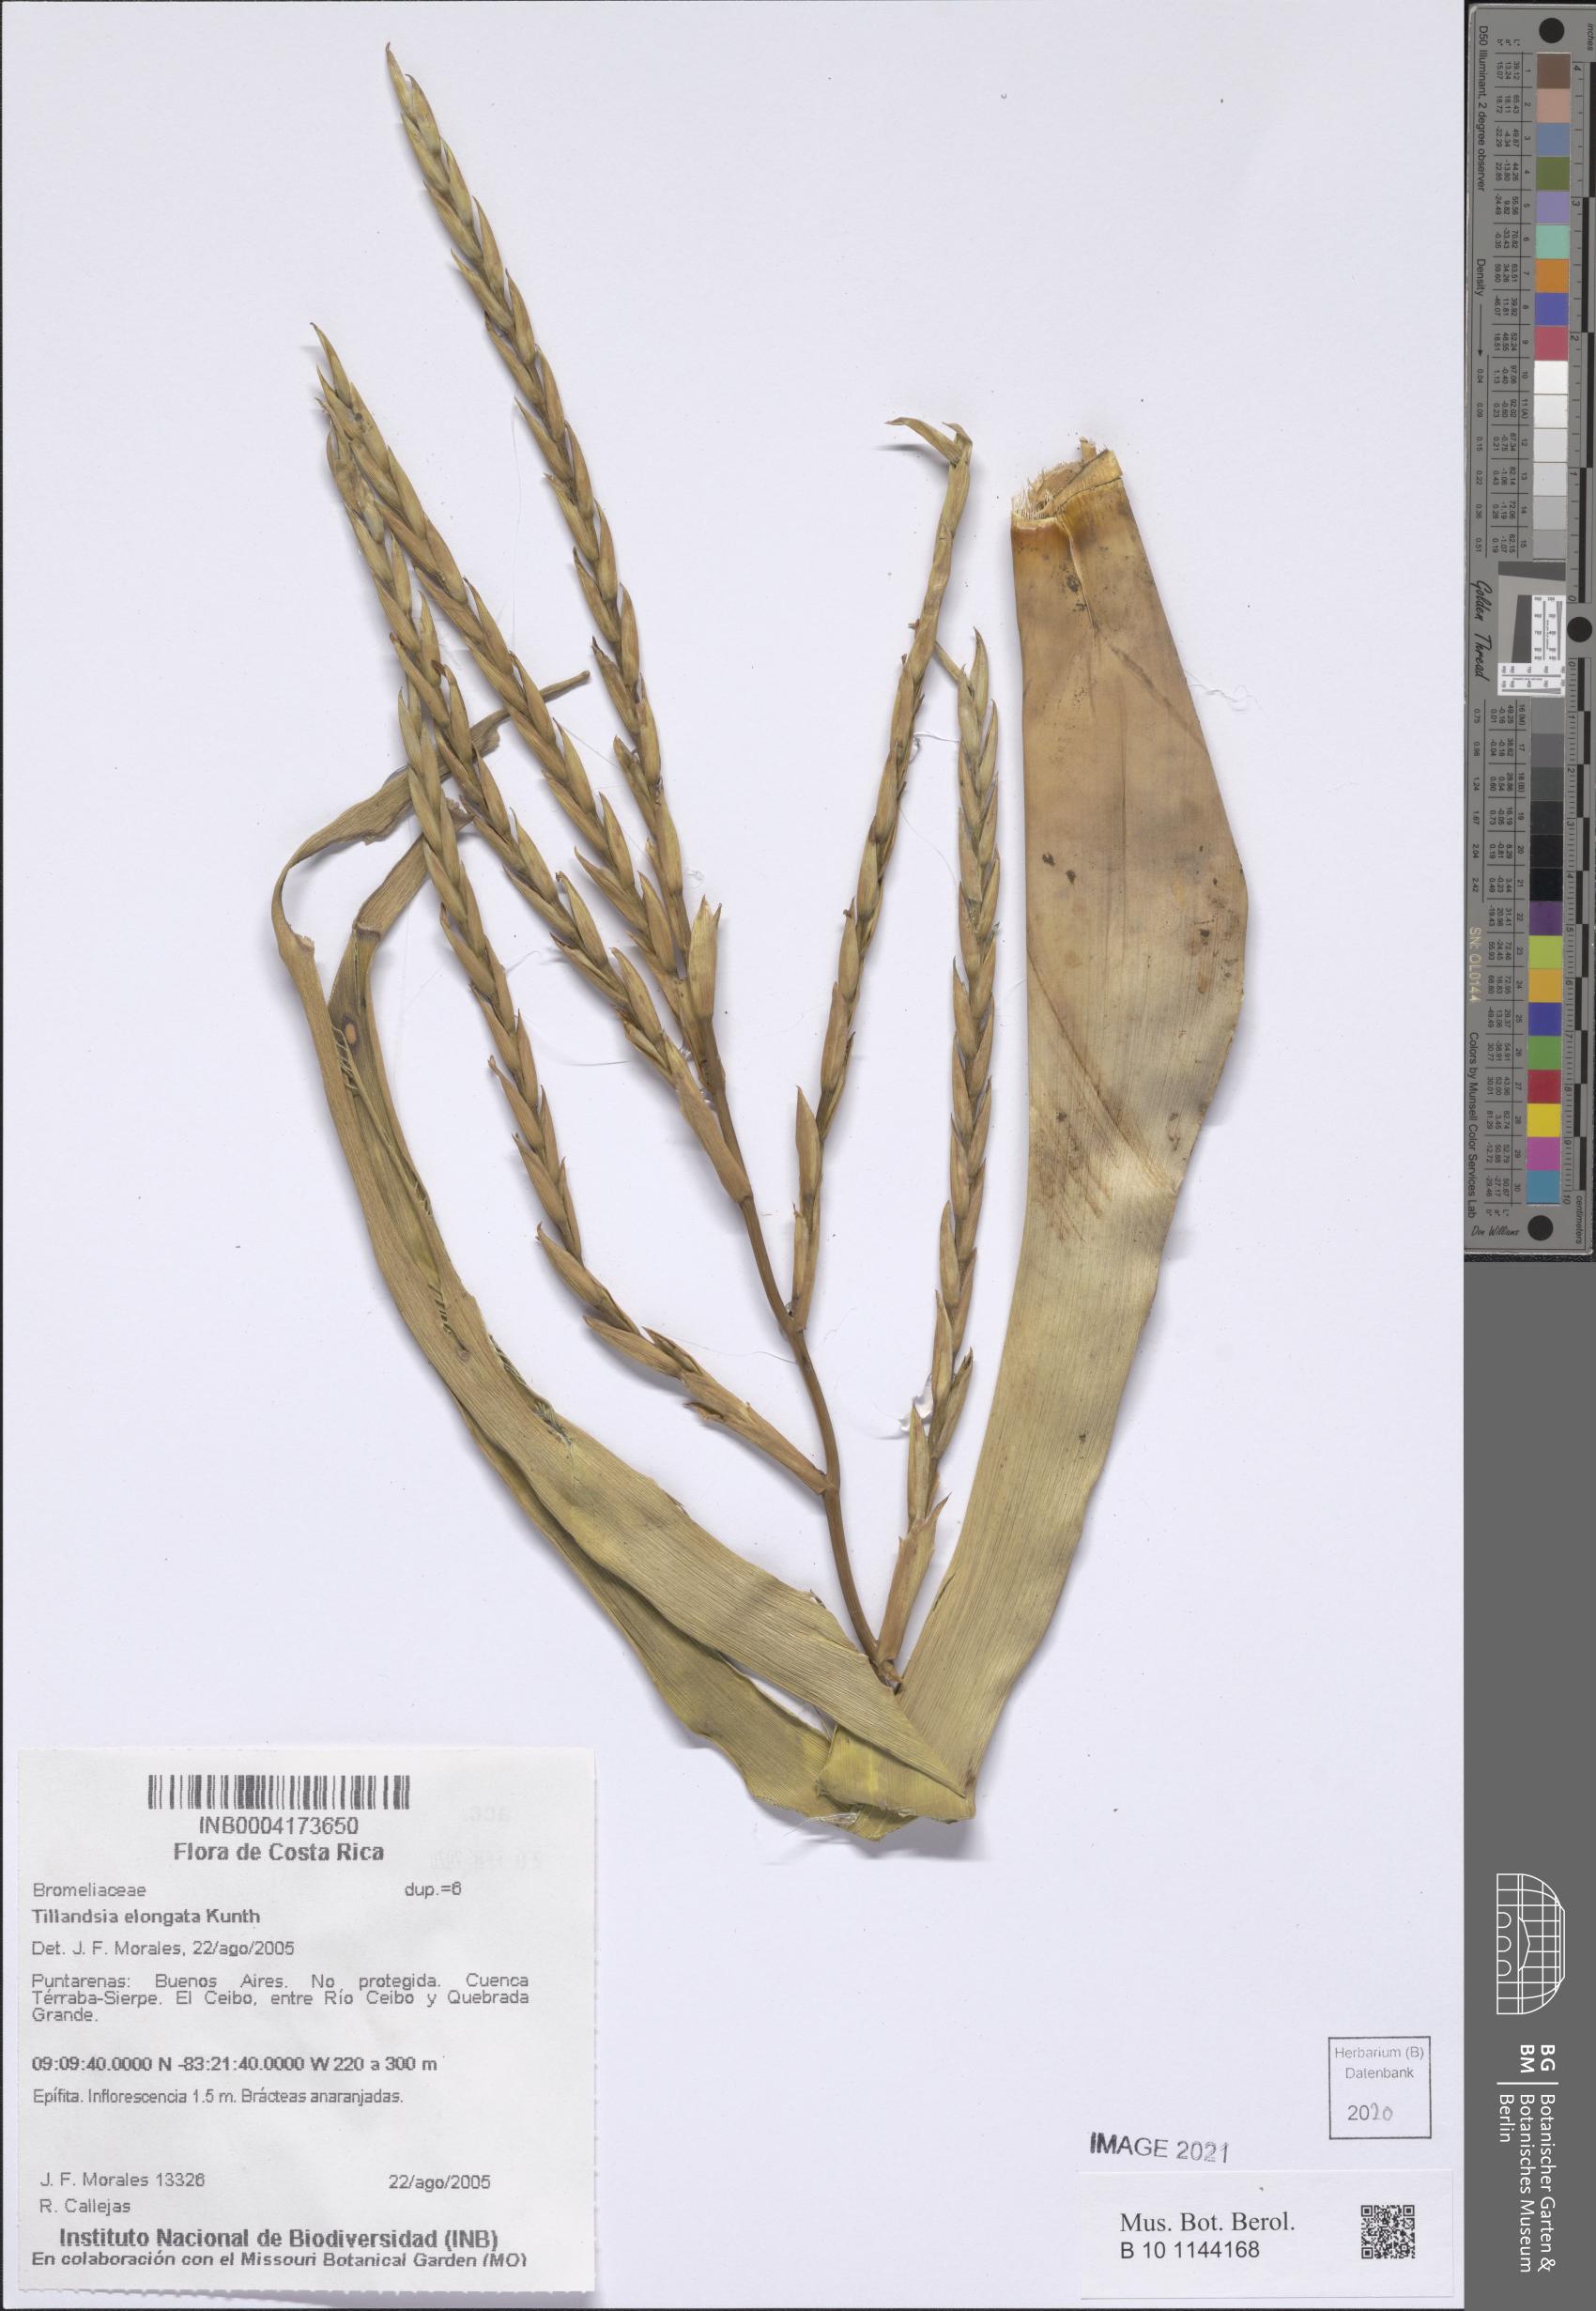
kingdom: Plantae
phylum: Tracheophyta
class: Liliopsida
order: Poales
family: Bromeliaceae
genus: Tillandsia
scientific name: Tillandsia elongata
